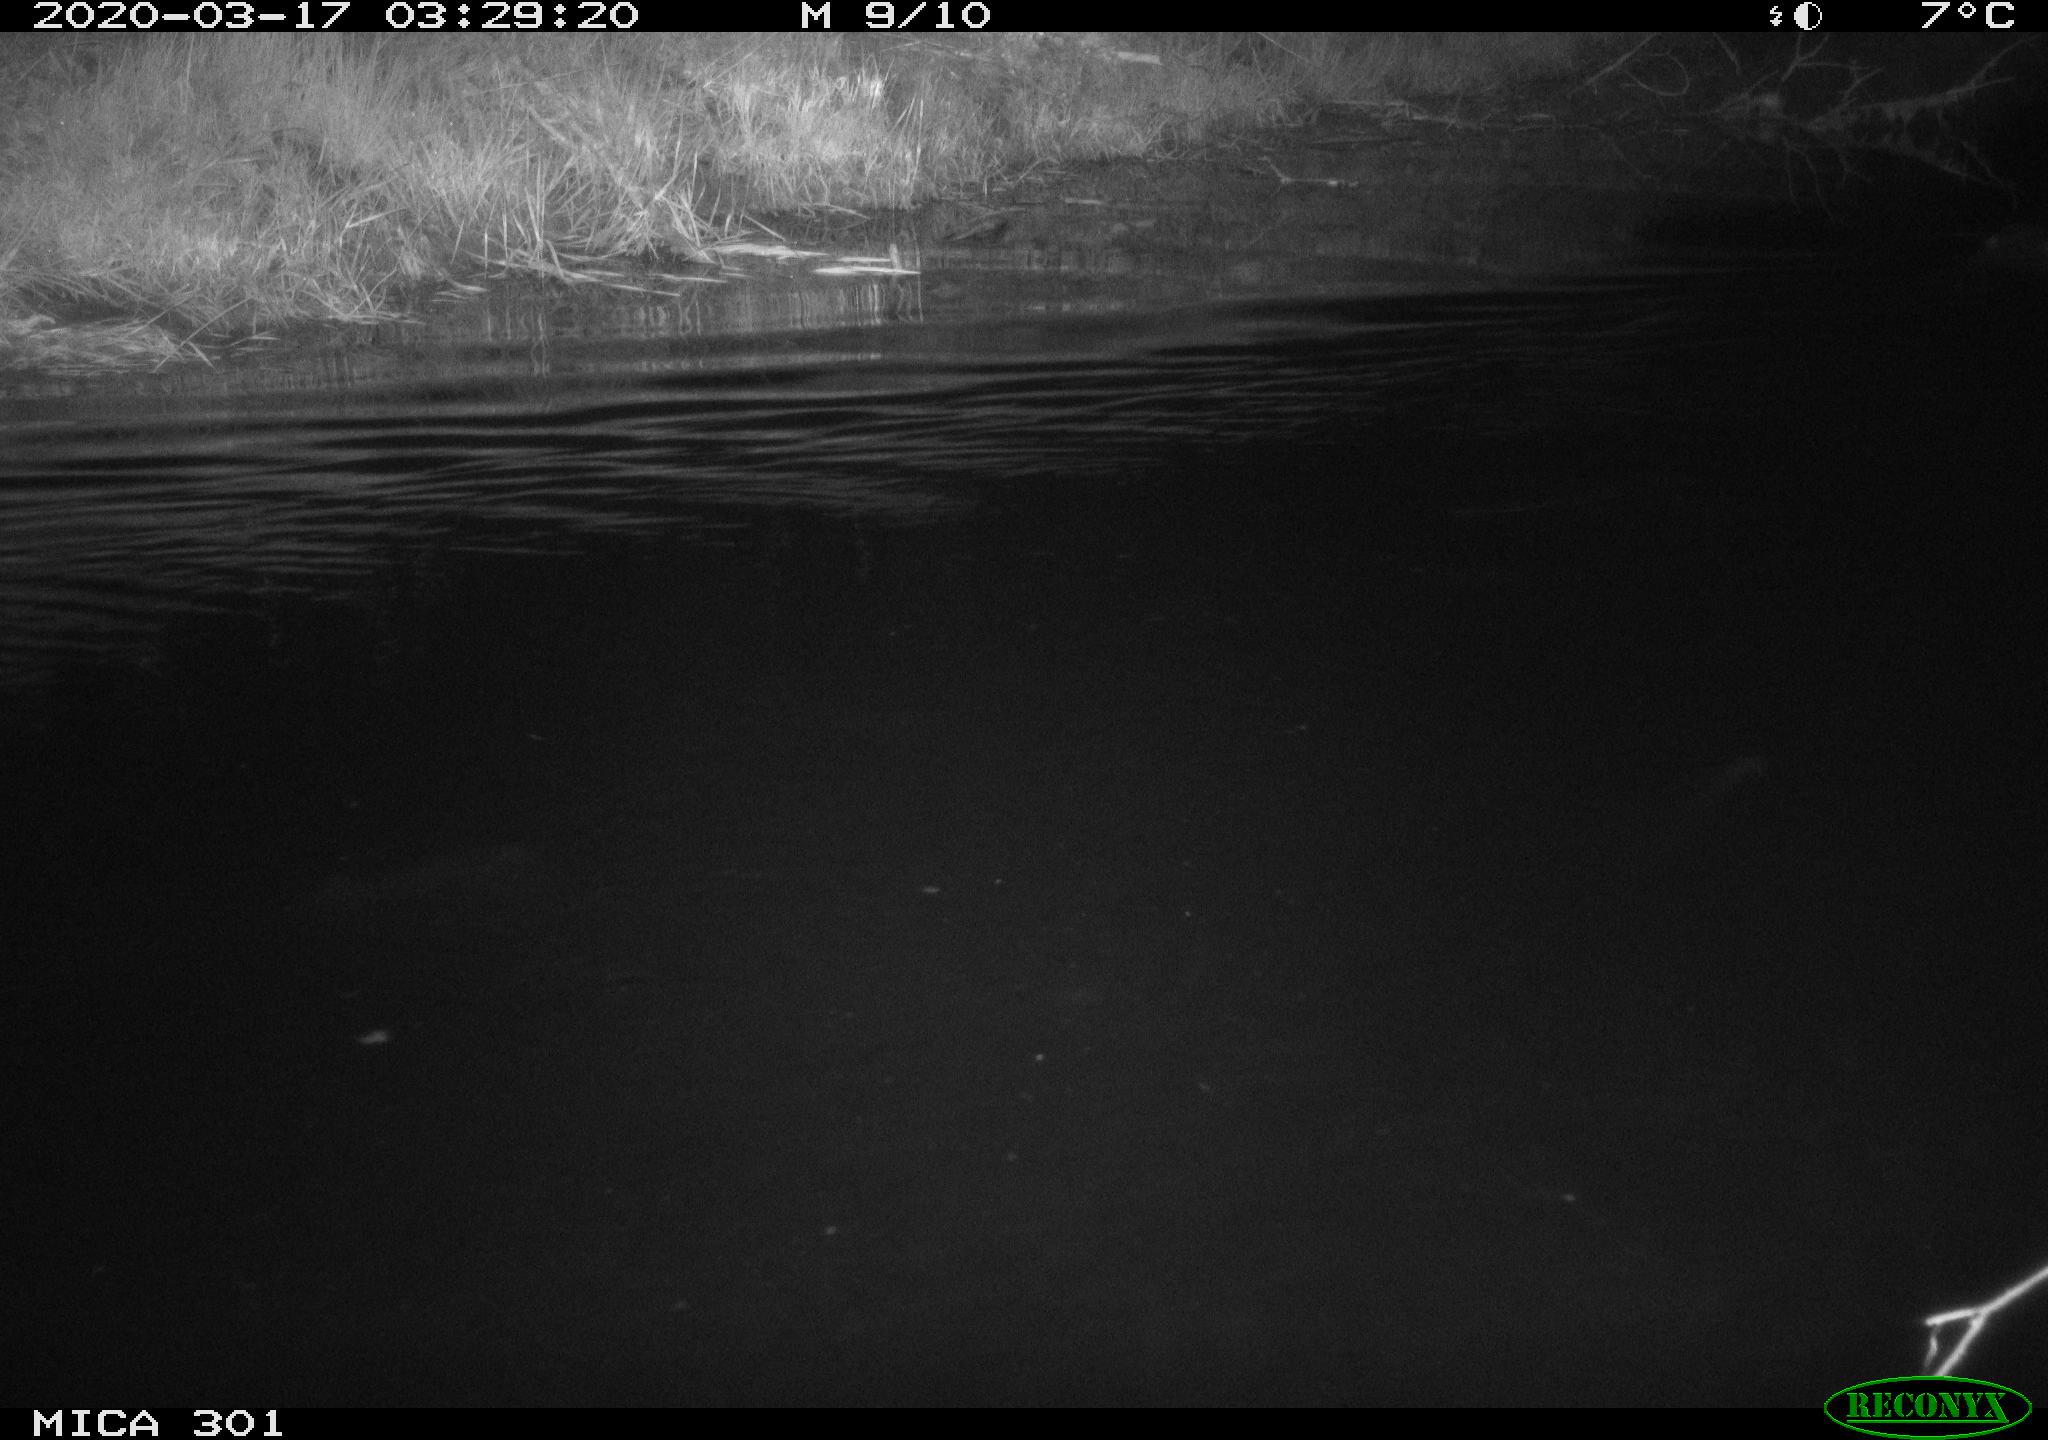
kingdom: Animalia
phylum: Chordata
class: Mammalia
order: Rodentia
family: Castoridae
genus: Castor
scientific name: Castor fiber
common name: Eurasian beaver
